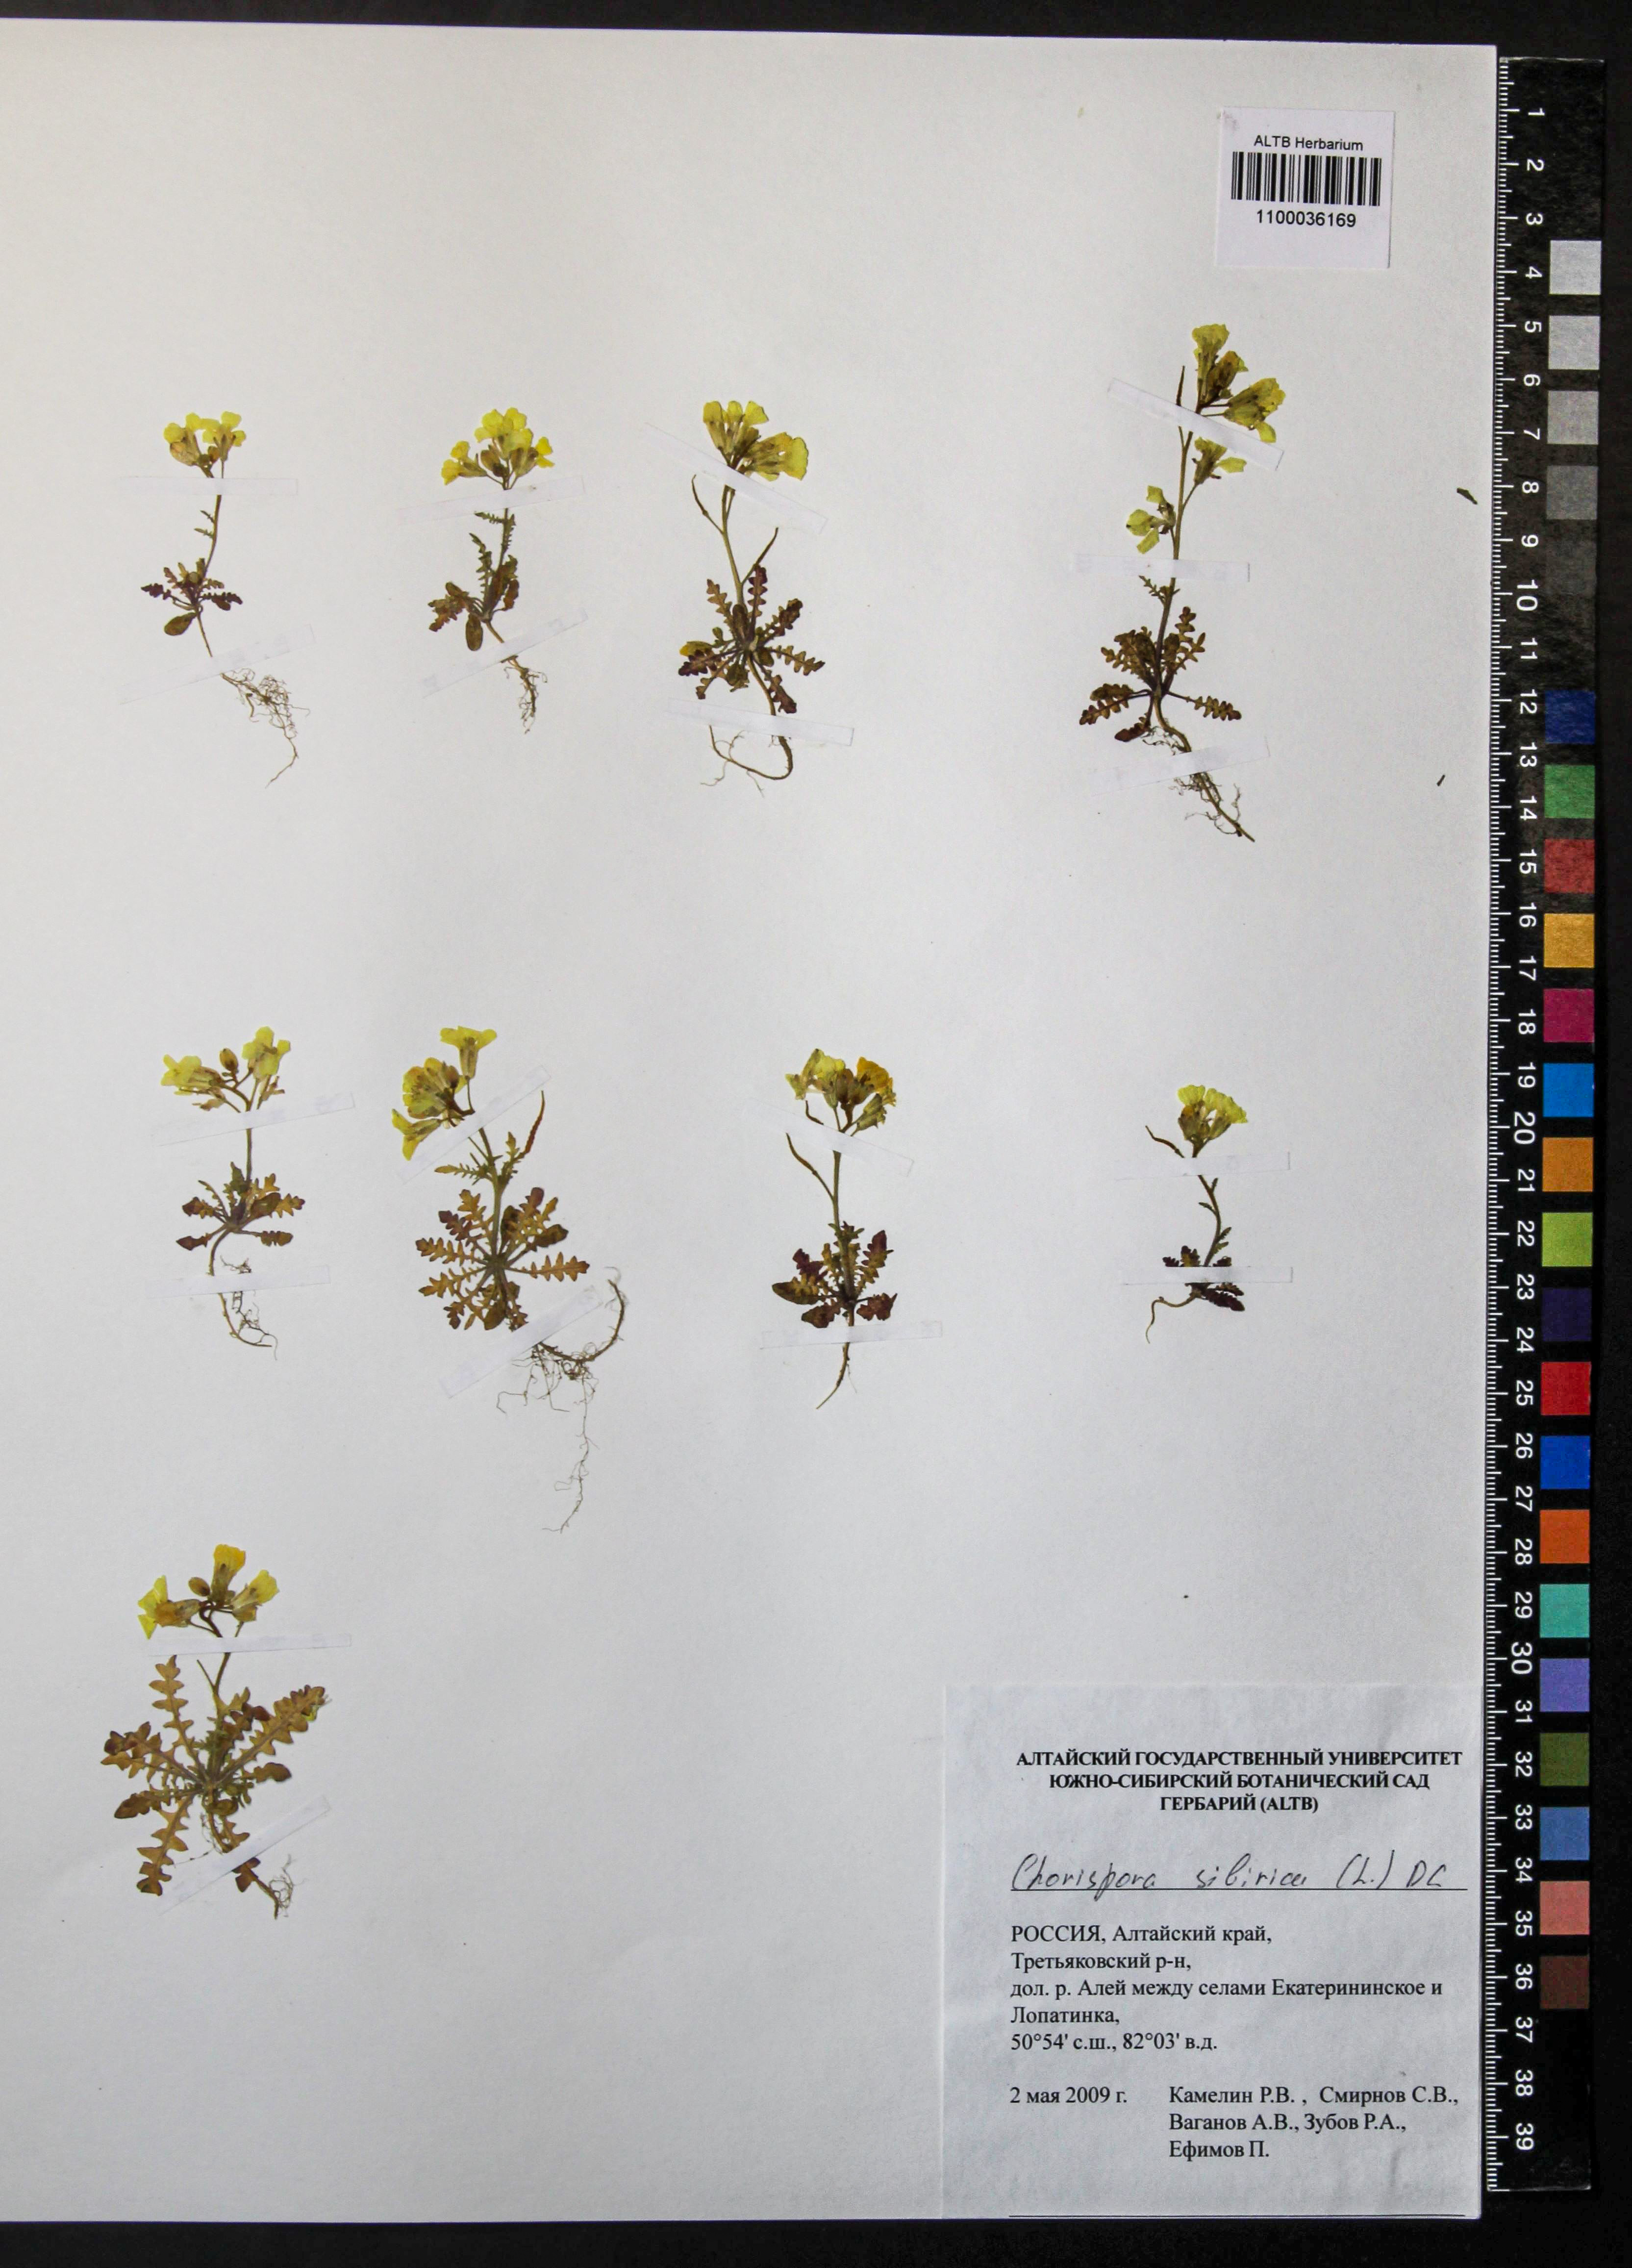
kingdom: Plantae
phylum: Tracheophyta
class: Magnoliopsida
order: Brassicales
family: Brassicaceae
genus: Chorispora
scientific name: Chorispora sibirica
